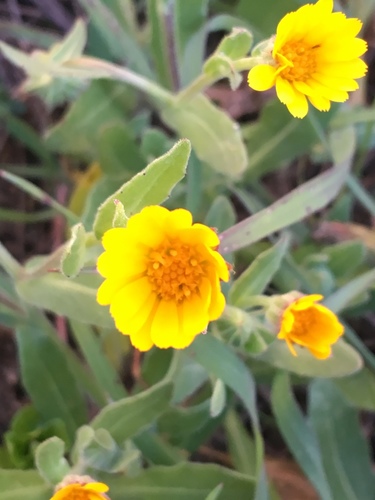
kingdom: Plantae
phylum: Tracheophyta
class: Magnoliopsida
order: Asterales
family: Asteraceae
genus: Calendula
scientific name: Calendula arvensis
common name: Field marigold
